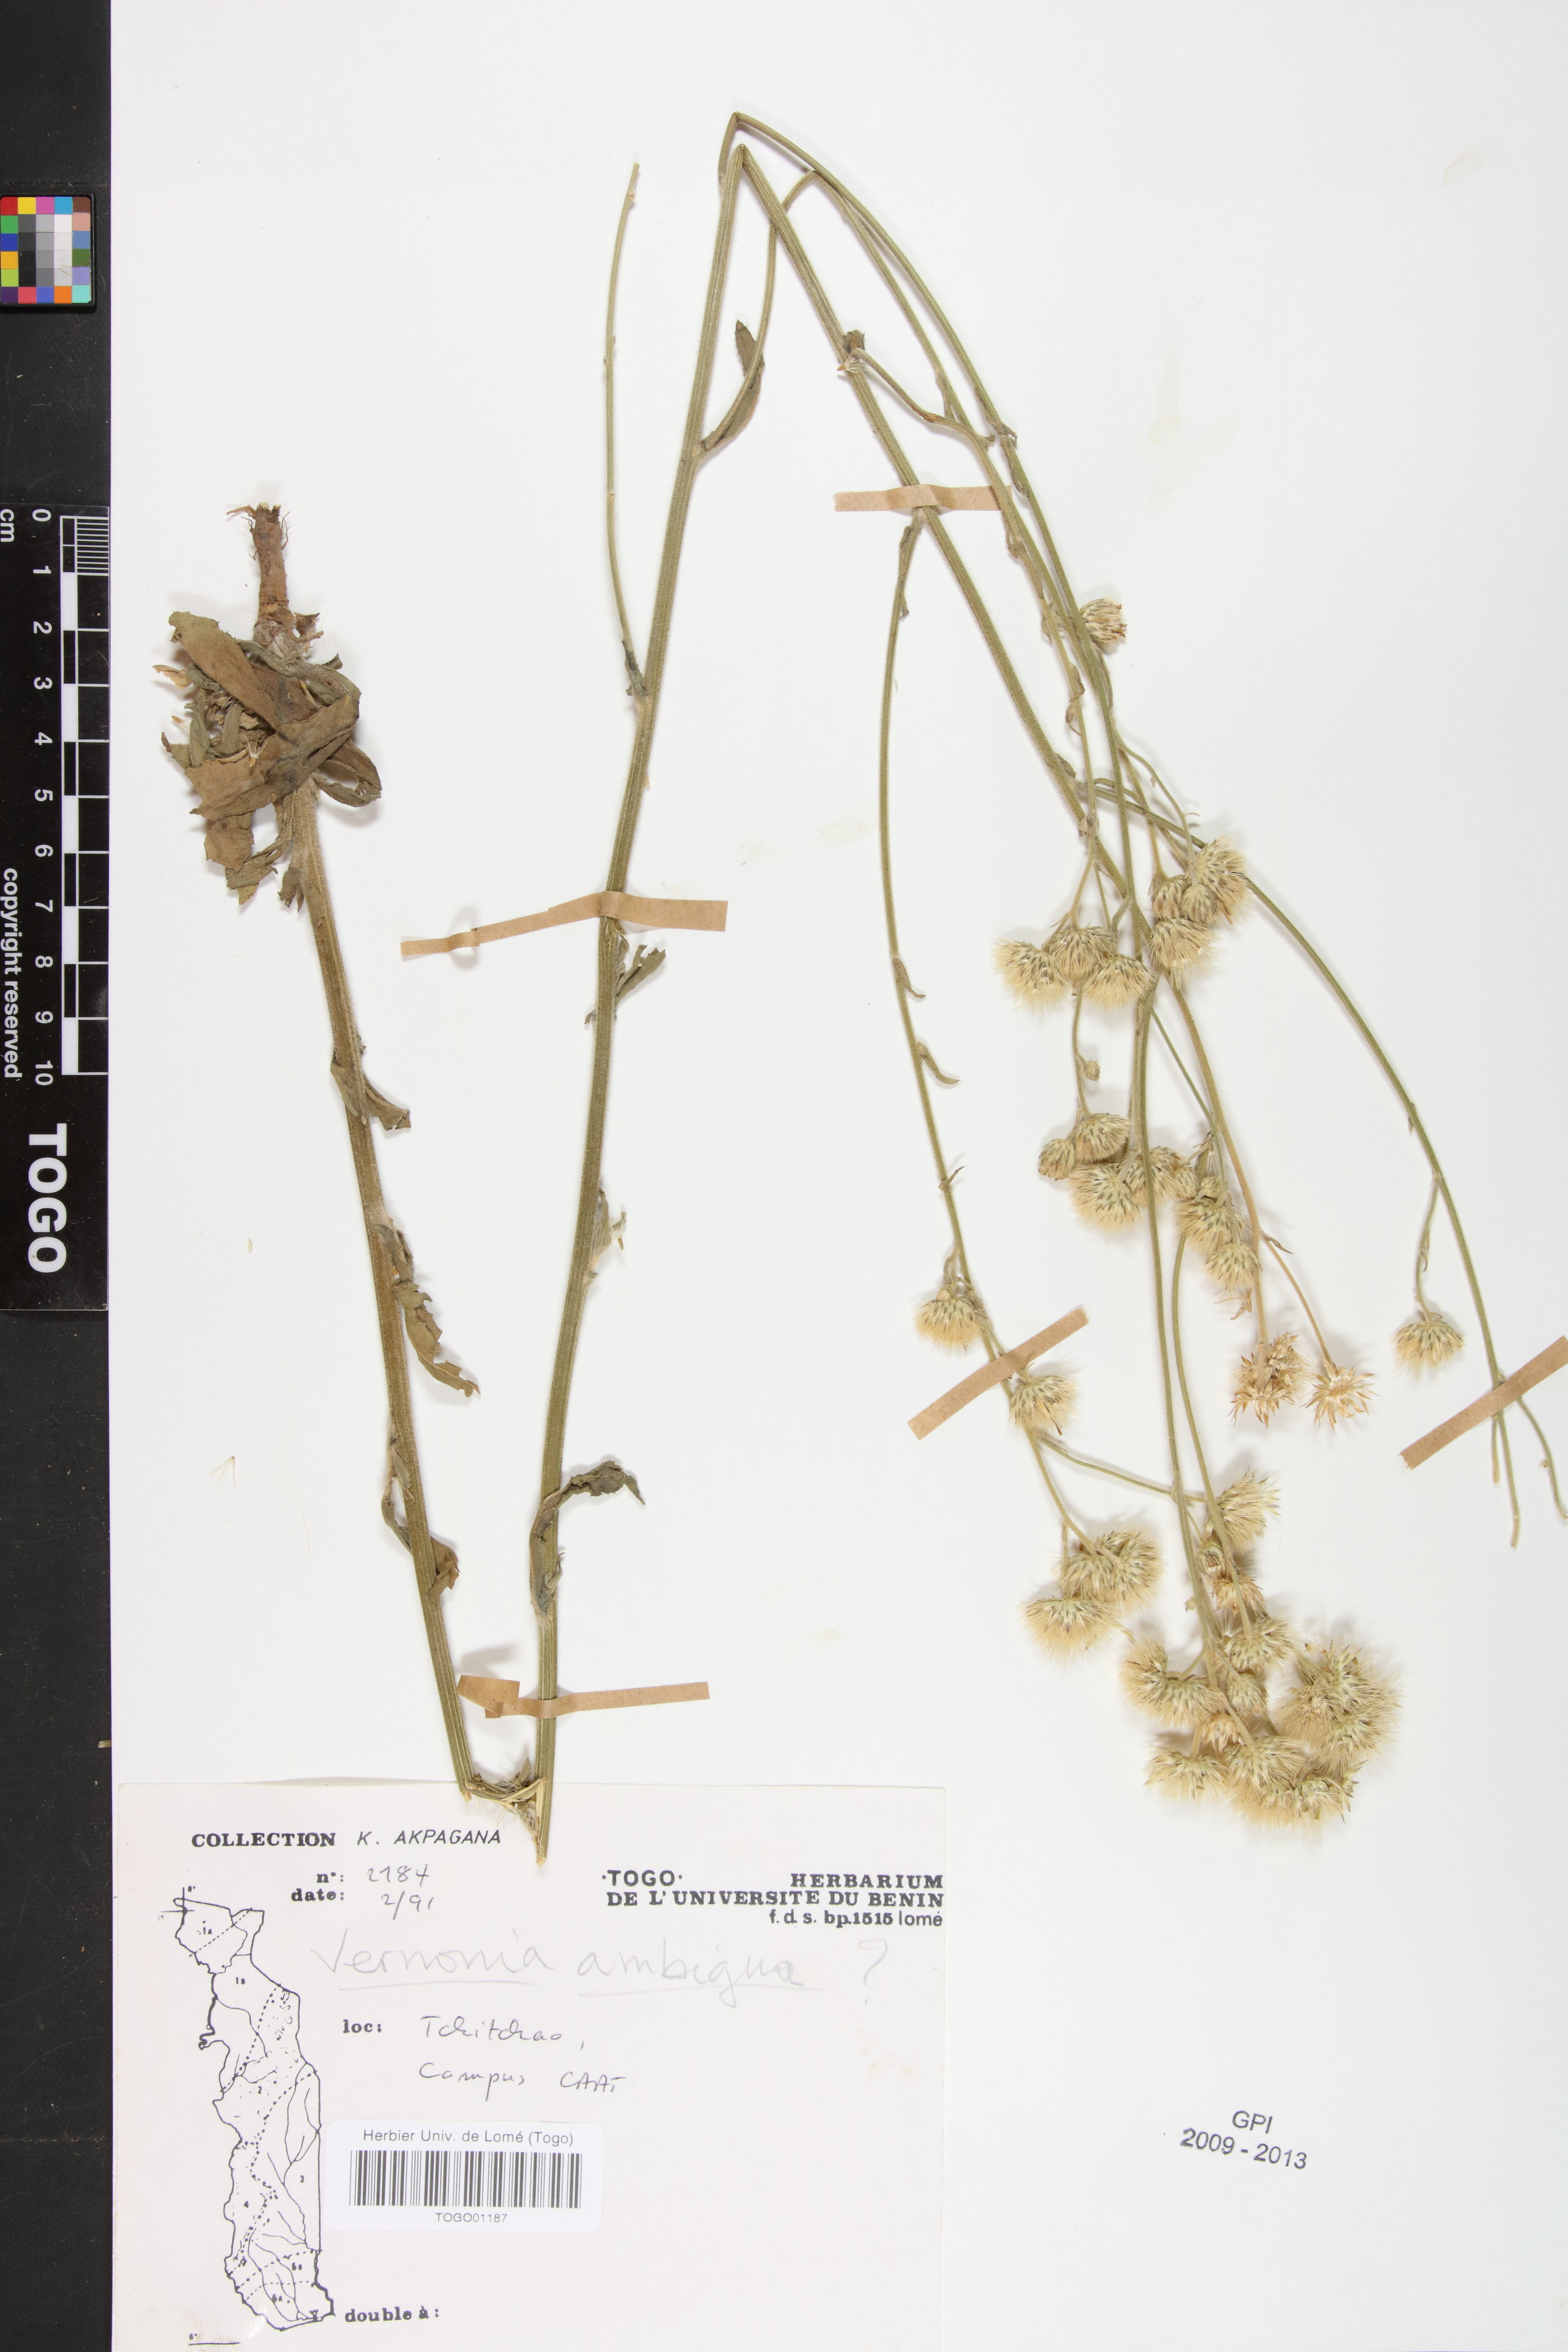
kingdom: Plantae
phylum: Tracheophyta
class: Magnoliopsida
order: Asterales
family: Asteraceae
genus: Vernoniastrum
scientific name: Vernoniastrum ambiguum
